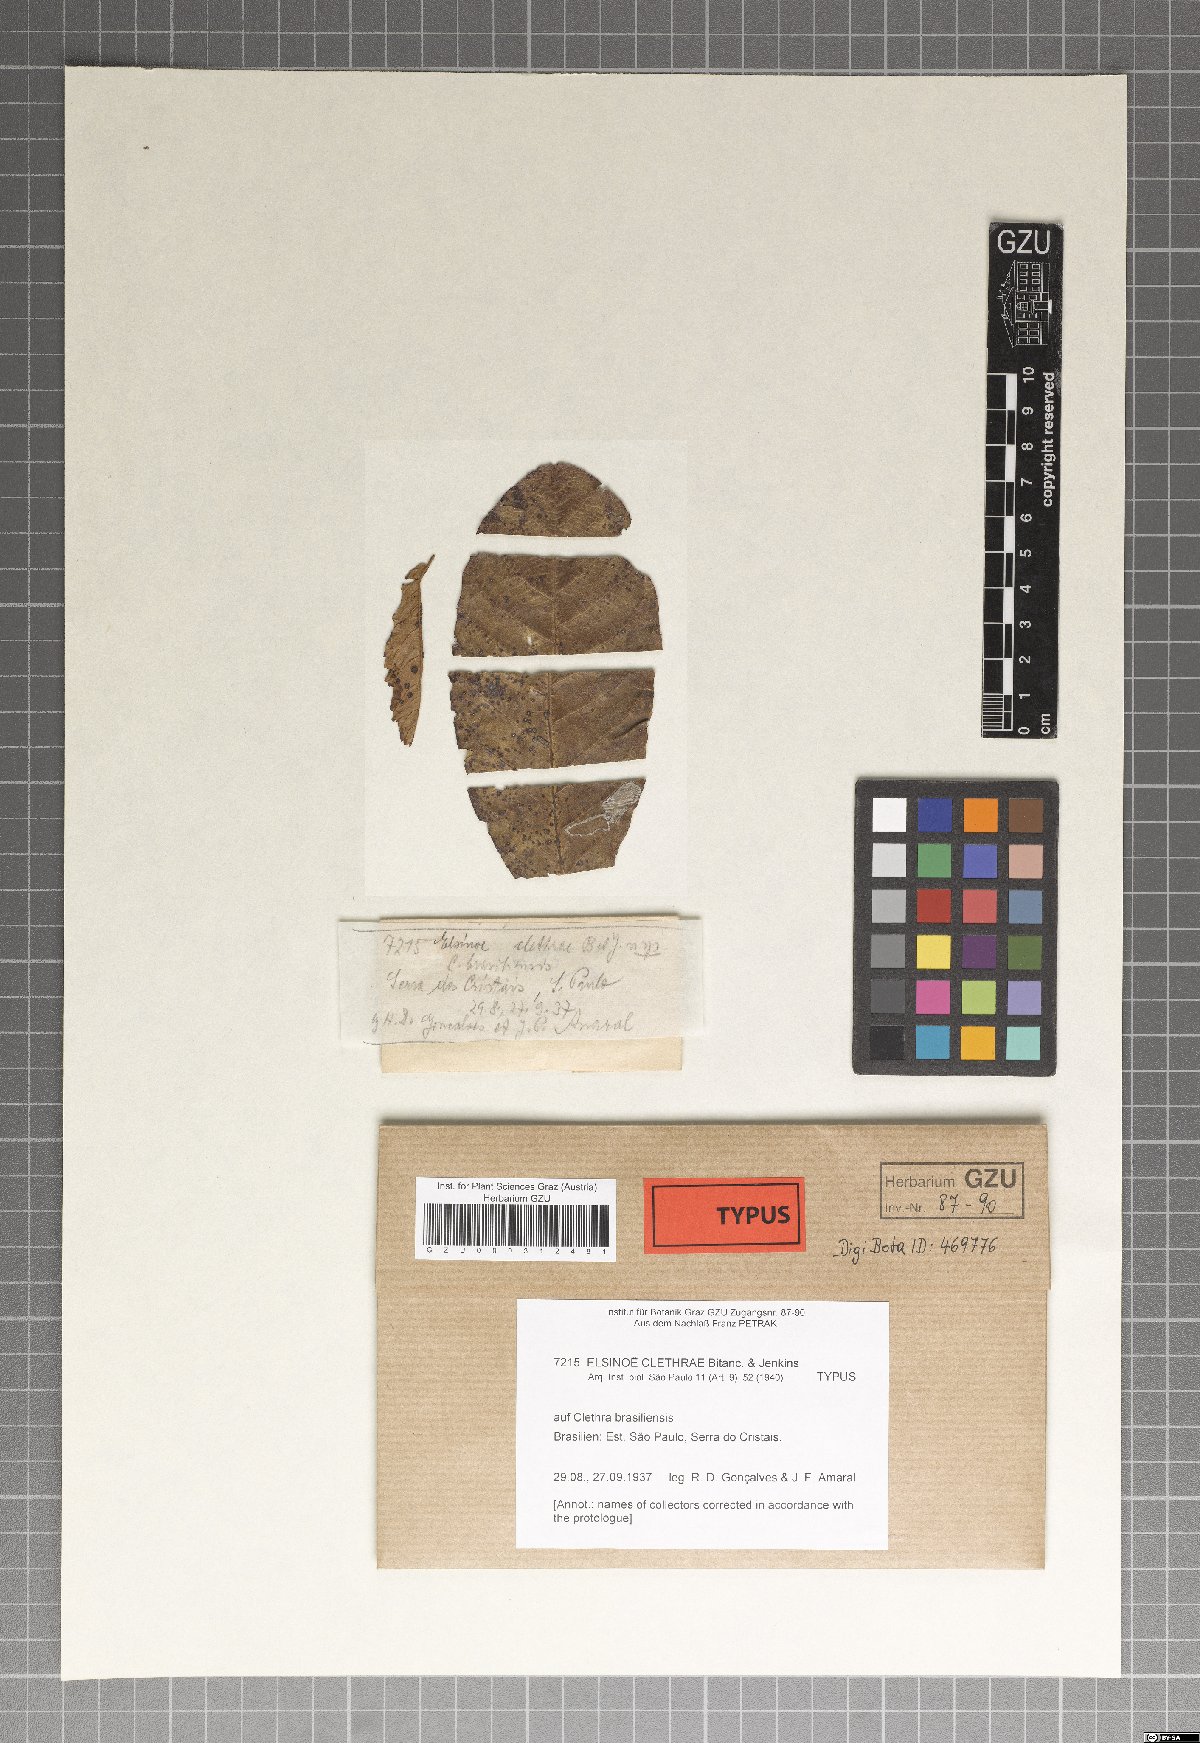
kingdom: Fungi
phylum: Ascomycota
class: Dothideomycetes
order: Myriangiales
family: Elsinoaceae
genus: Elsinoe
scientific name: Elsinoe clethrae
